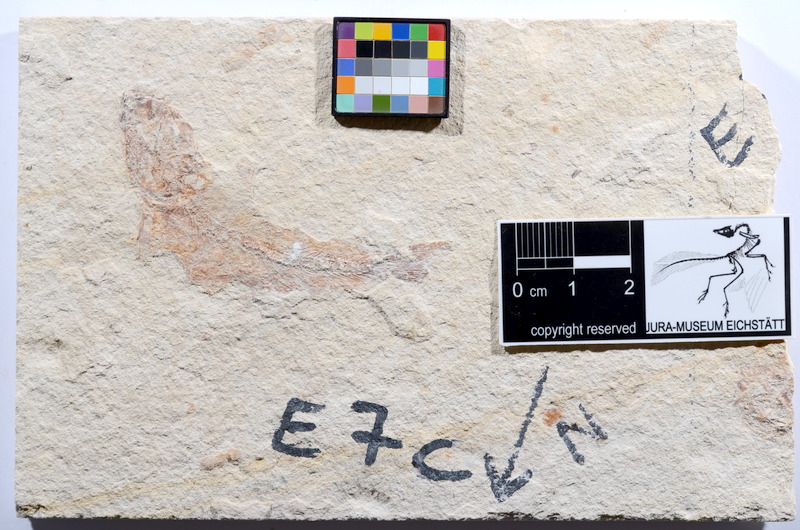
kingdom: Animalia
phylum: Chordata
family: Ascalaboidae
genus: Tharsis
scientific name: Tharsis dubius
